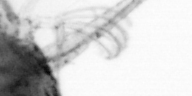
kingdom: Animalia
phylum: Arthropoda
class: Copepoda
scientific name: Copepoda
